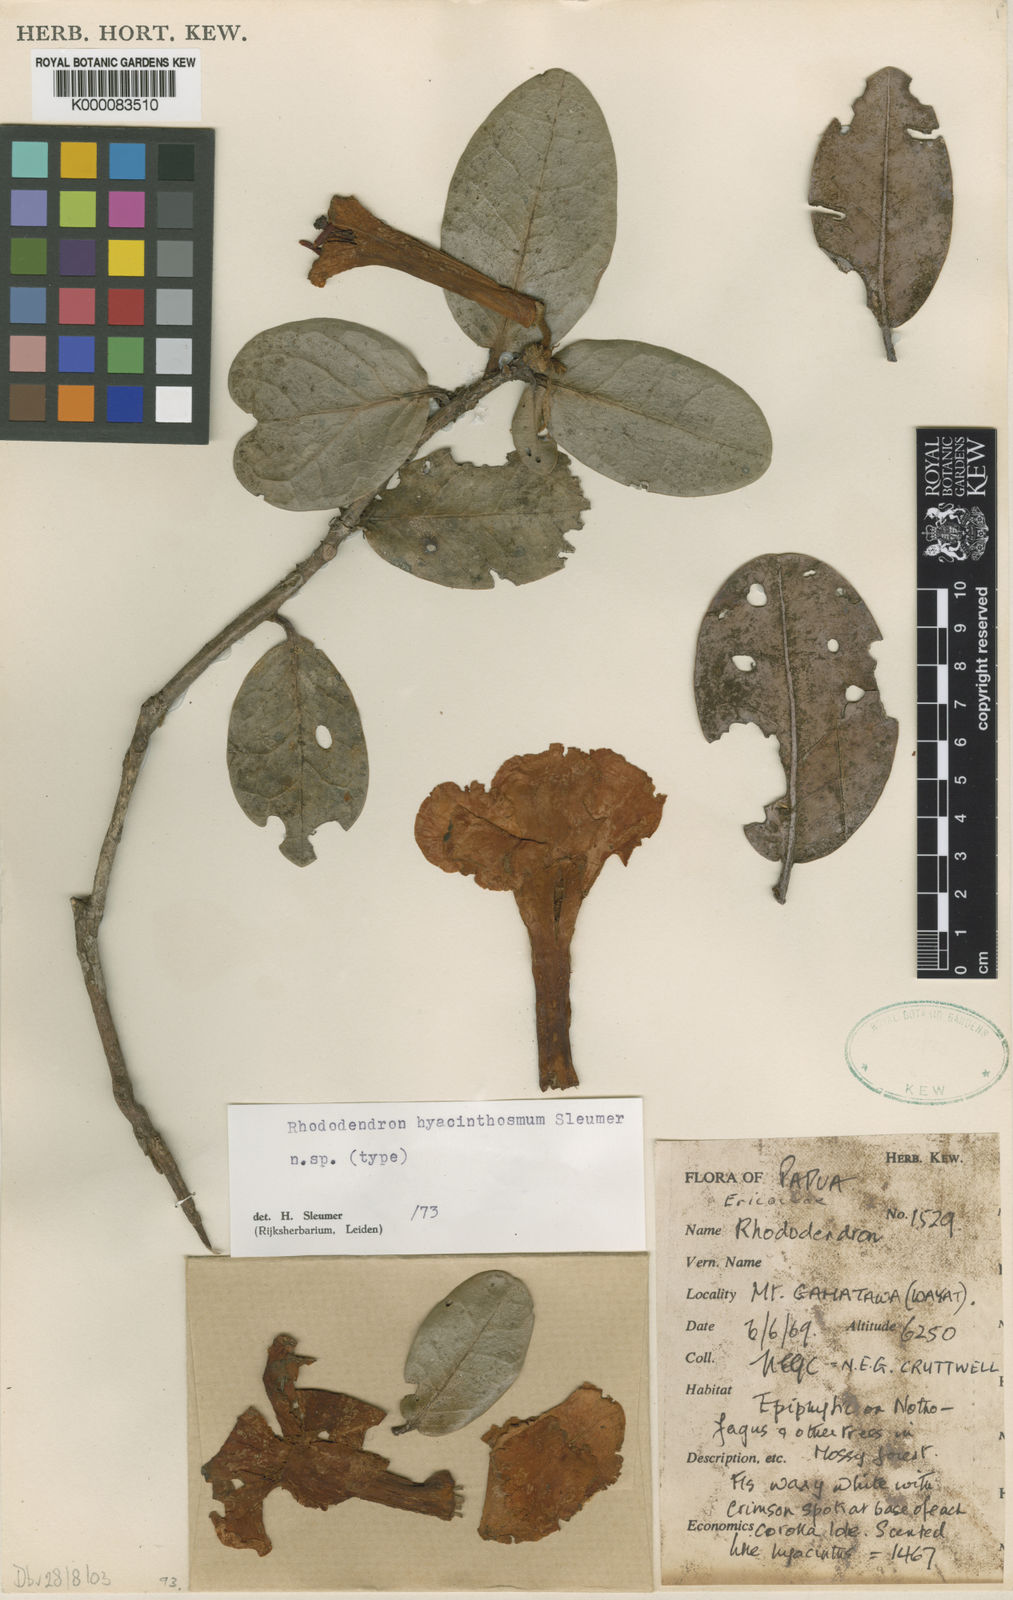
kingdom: Plantae
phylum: Tracheophyta
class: Magnoliopsida
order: Ericales
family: Ericaceae
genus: Rhododendron
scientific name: Rhododendron hyacinthosmum
